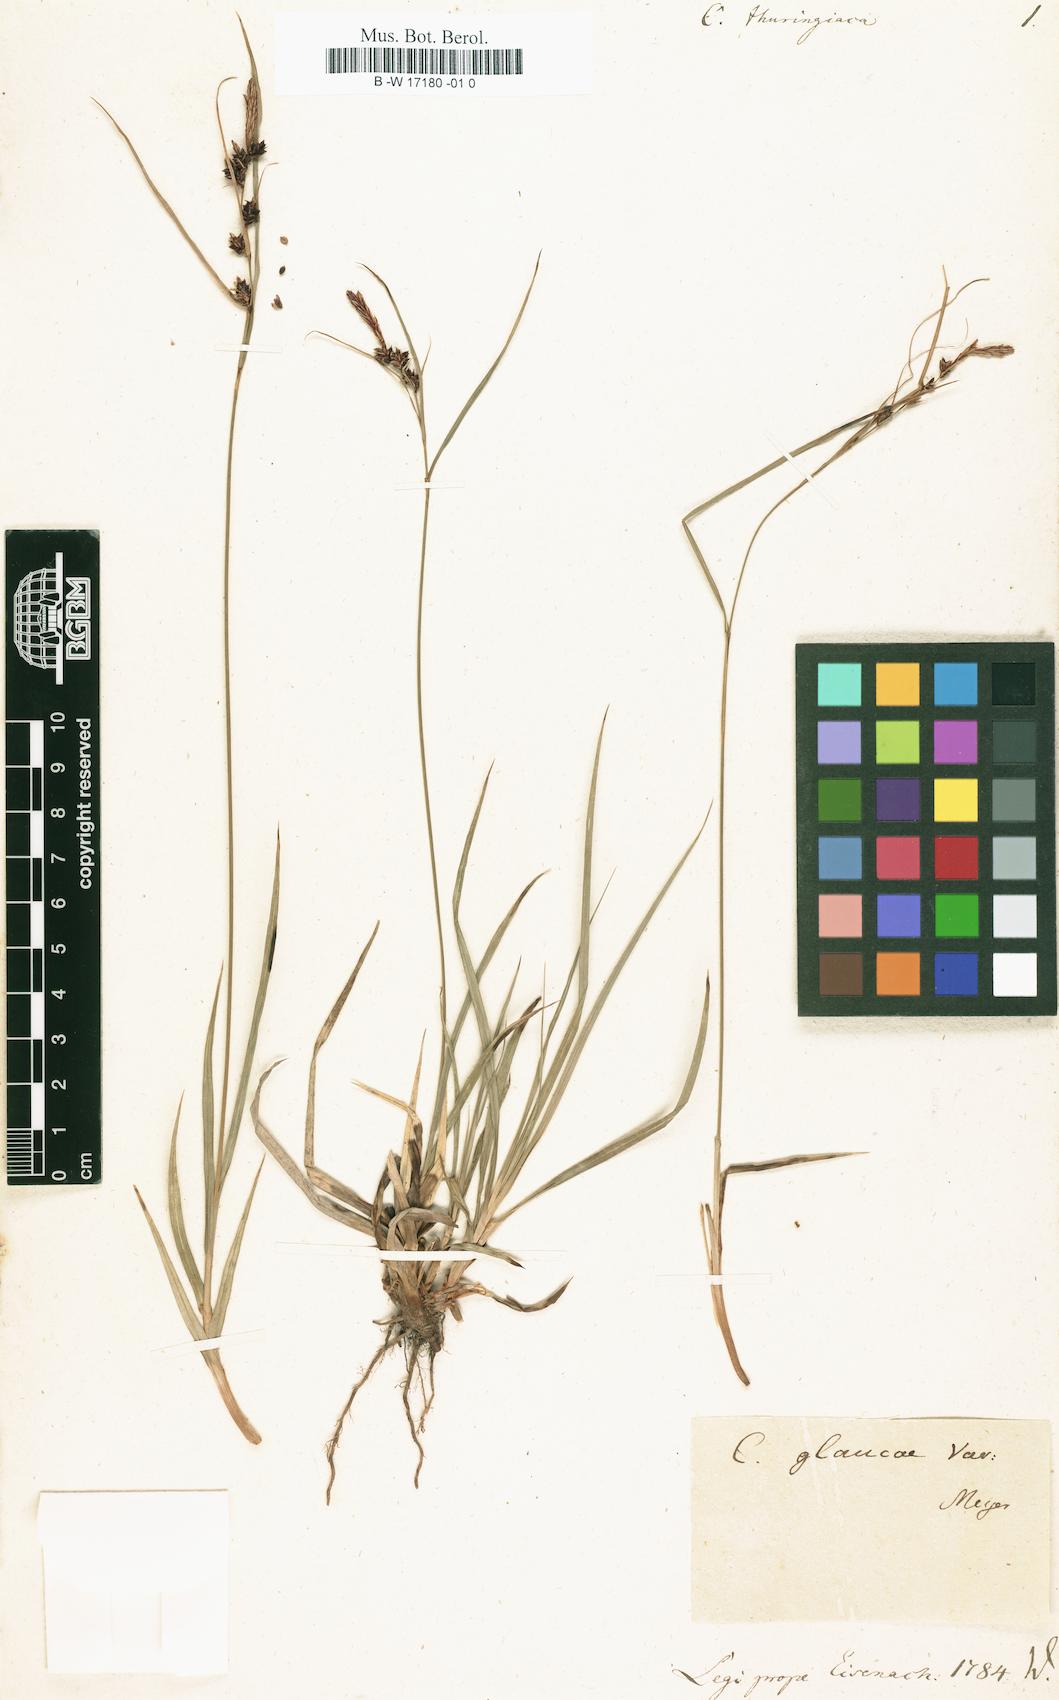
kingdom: Plantae
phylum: Tracheophyta
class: Liliopsida
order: Poales
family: Cyperaceae
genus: Carex
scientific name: Carex flacca
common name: Glaucous sedge
